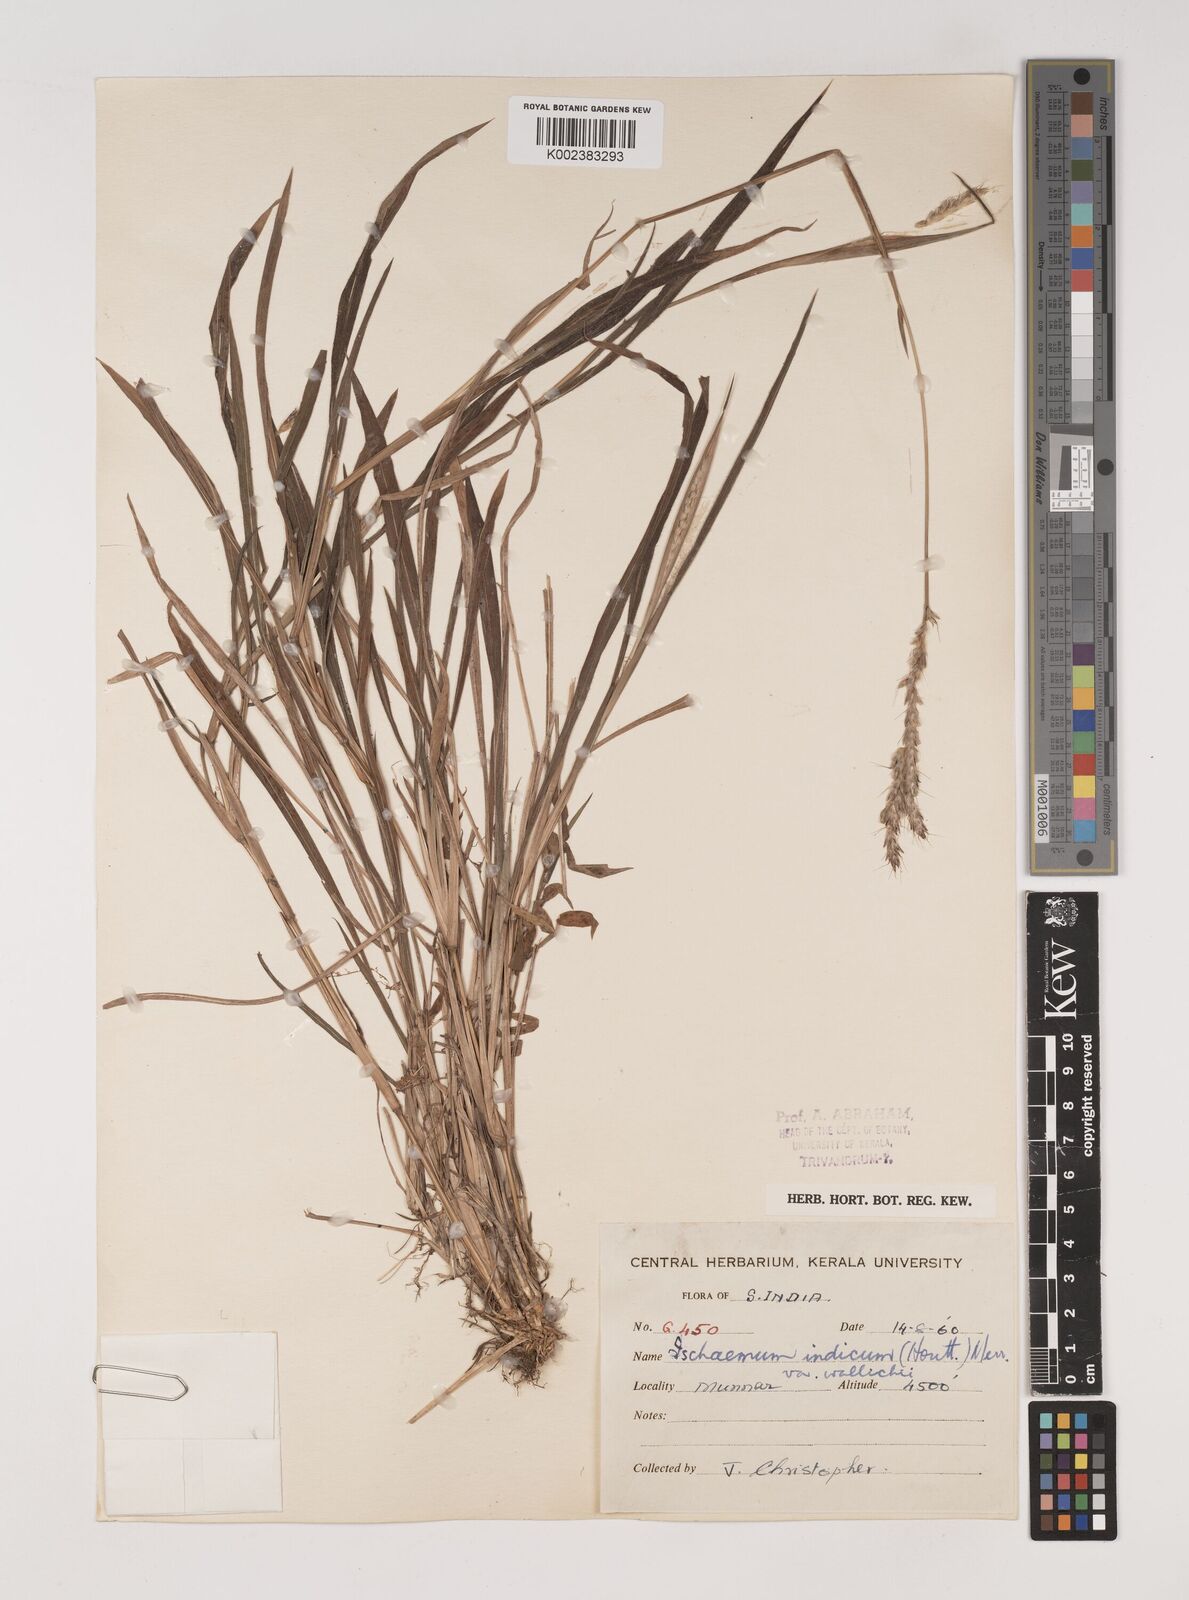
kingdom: Plantae
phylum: Tracheophyta
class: Liliopsida
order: Poales
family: Poaceae
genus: Polytrias
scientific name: Polytrias indica
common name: Indian murainagrass
